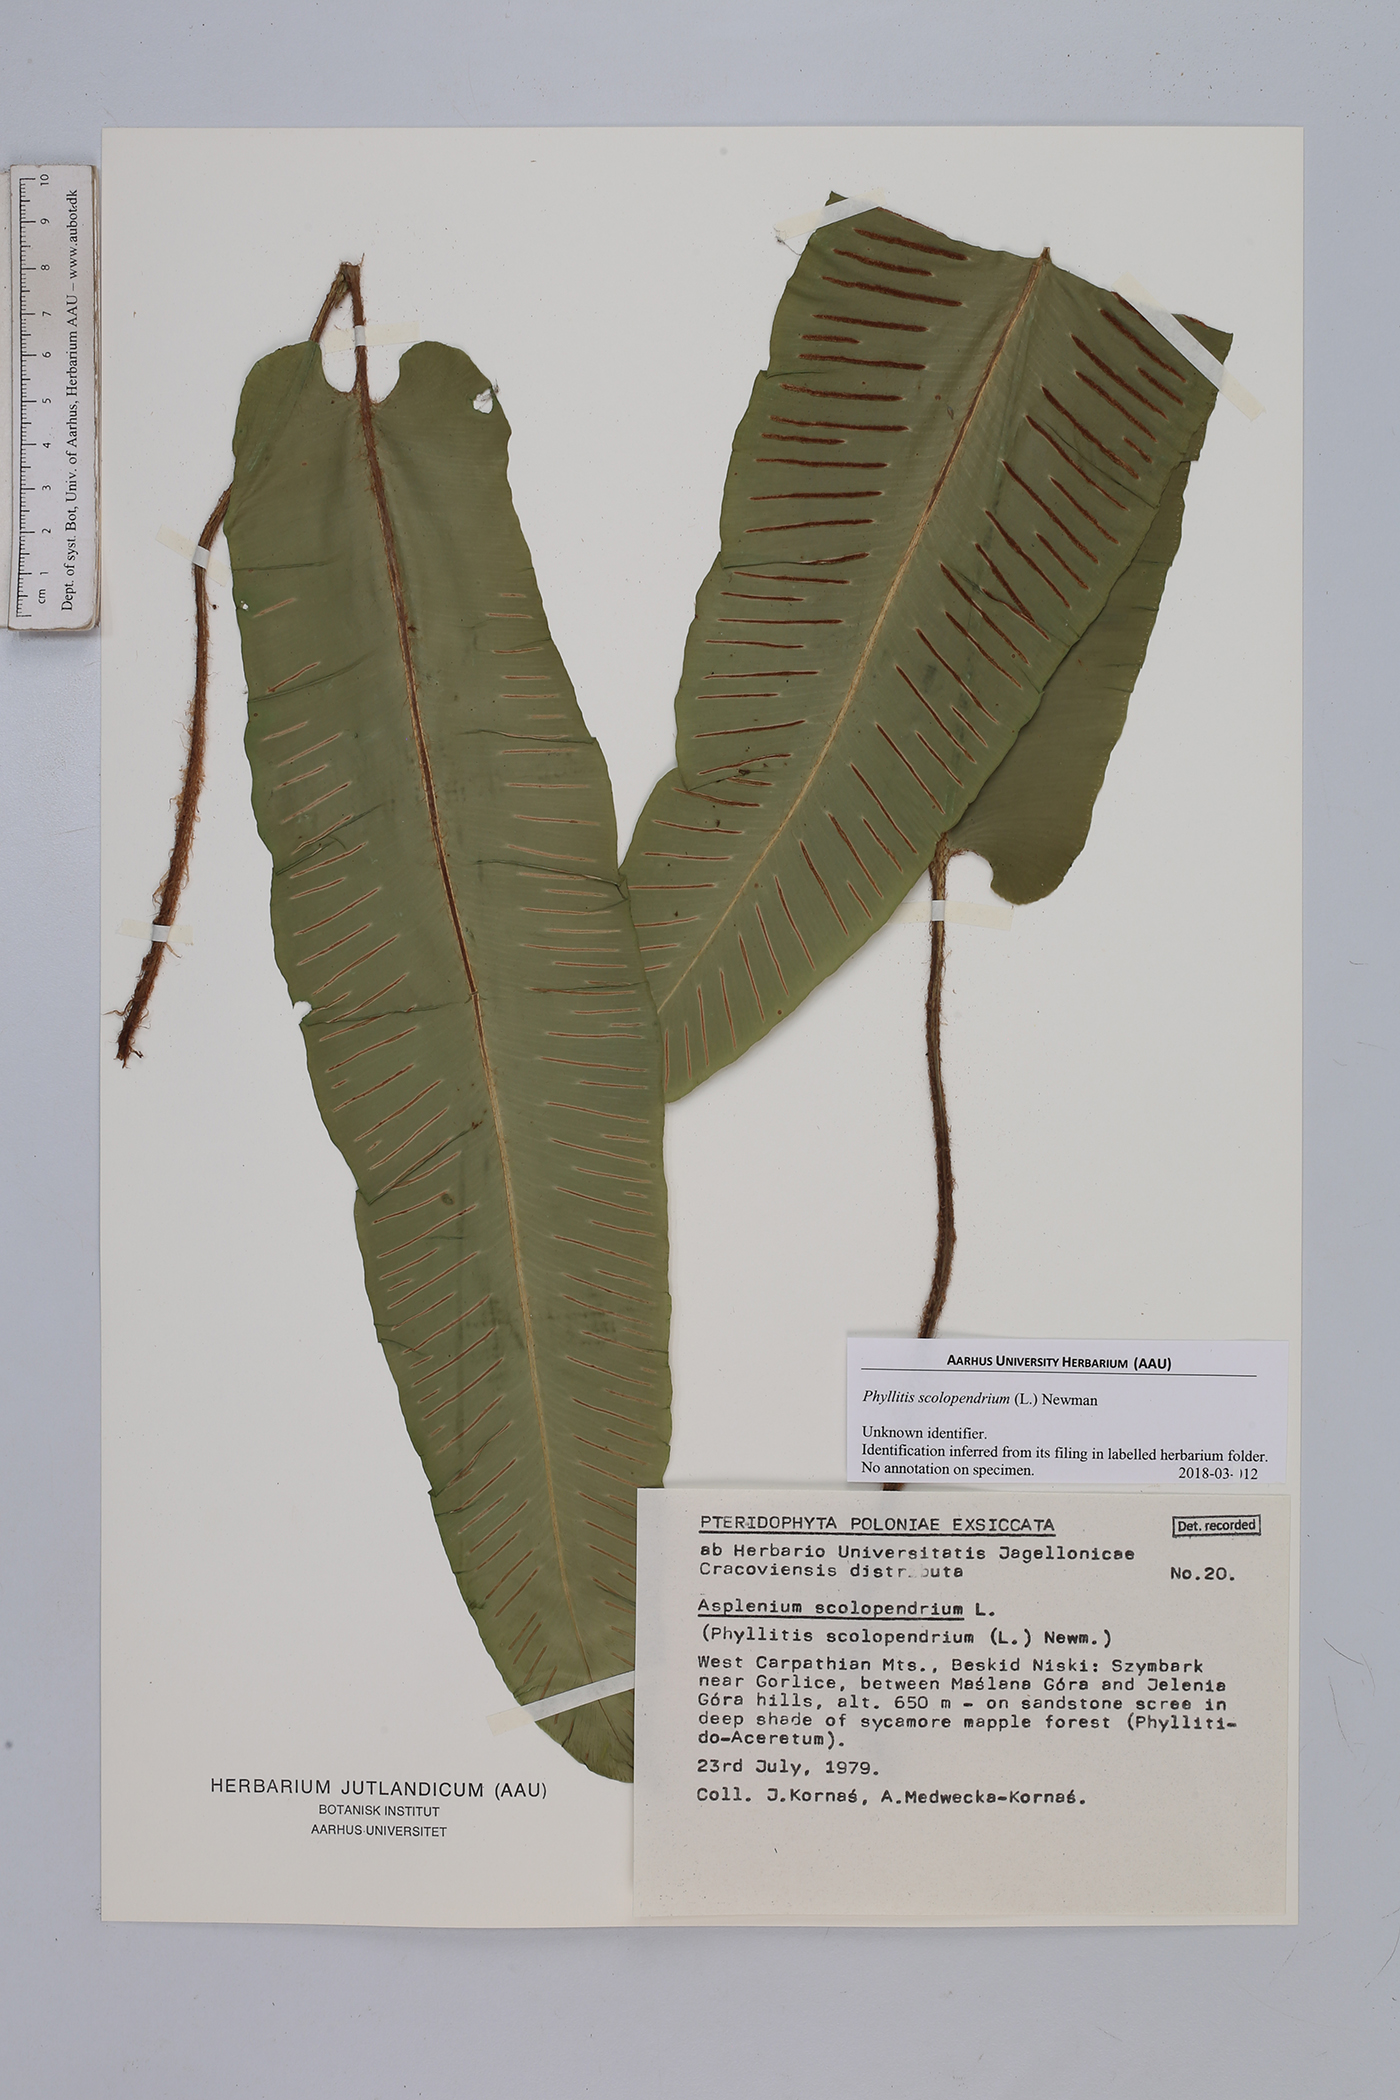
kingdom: Plantae
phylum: Tracheophyta
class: Polypodiopsida
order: Polypodiales
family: Aspleniaceae
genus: Asplenium
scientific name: Asplenium scolopendrium
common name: Hart's-tongue fern
